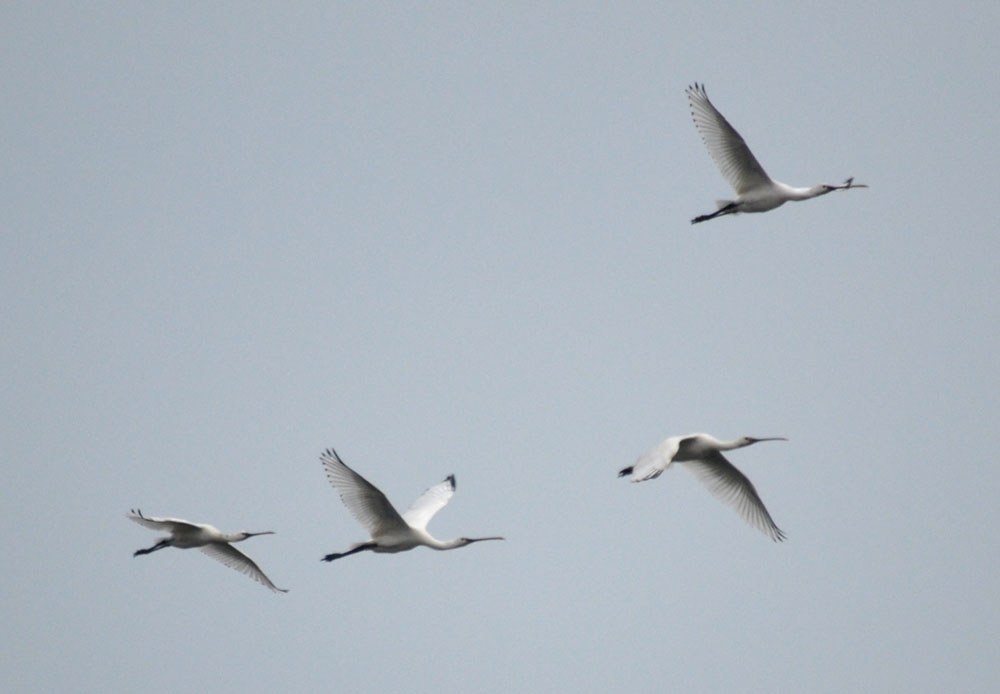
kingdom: Animalia
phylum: Chordata
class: Aves
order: Pelecaniformes
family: Threskiornithidae
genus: Platalea
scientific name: Platalea leucorodia
